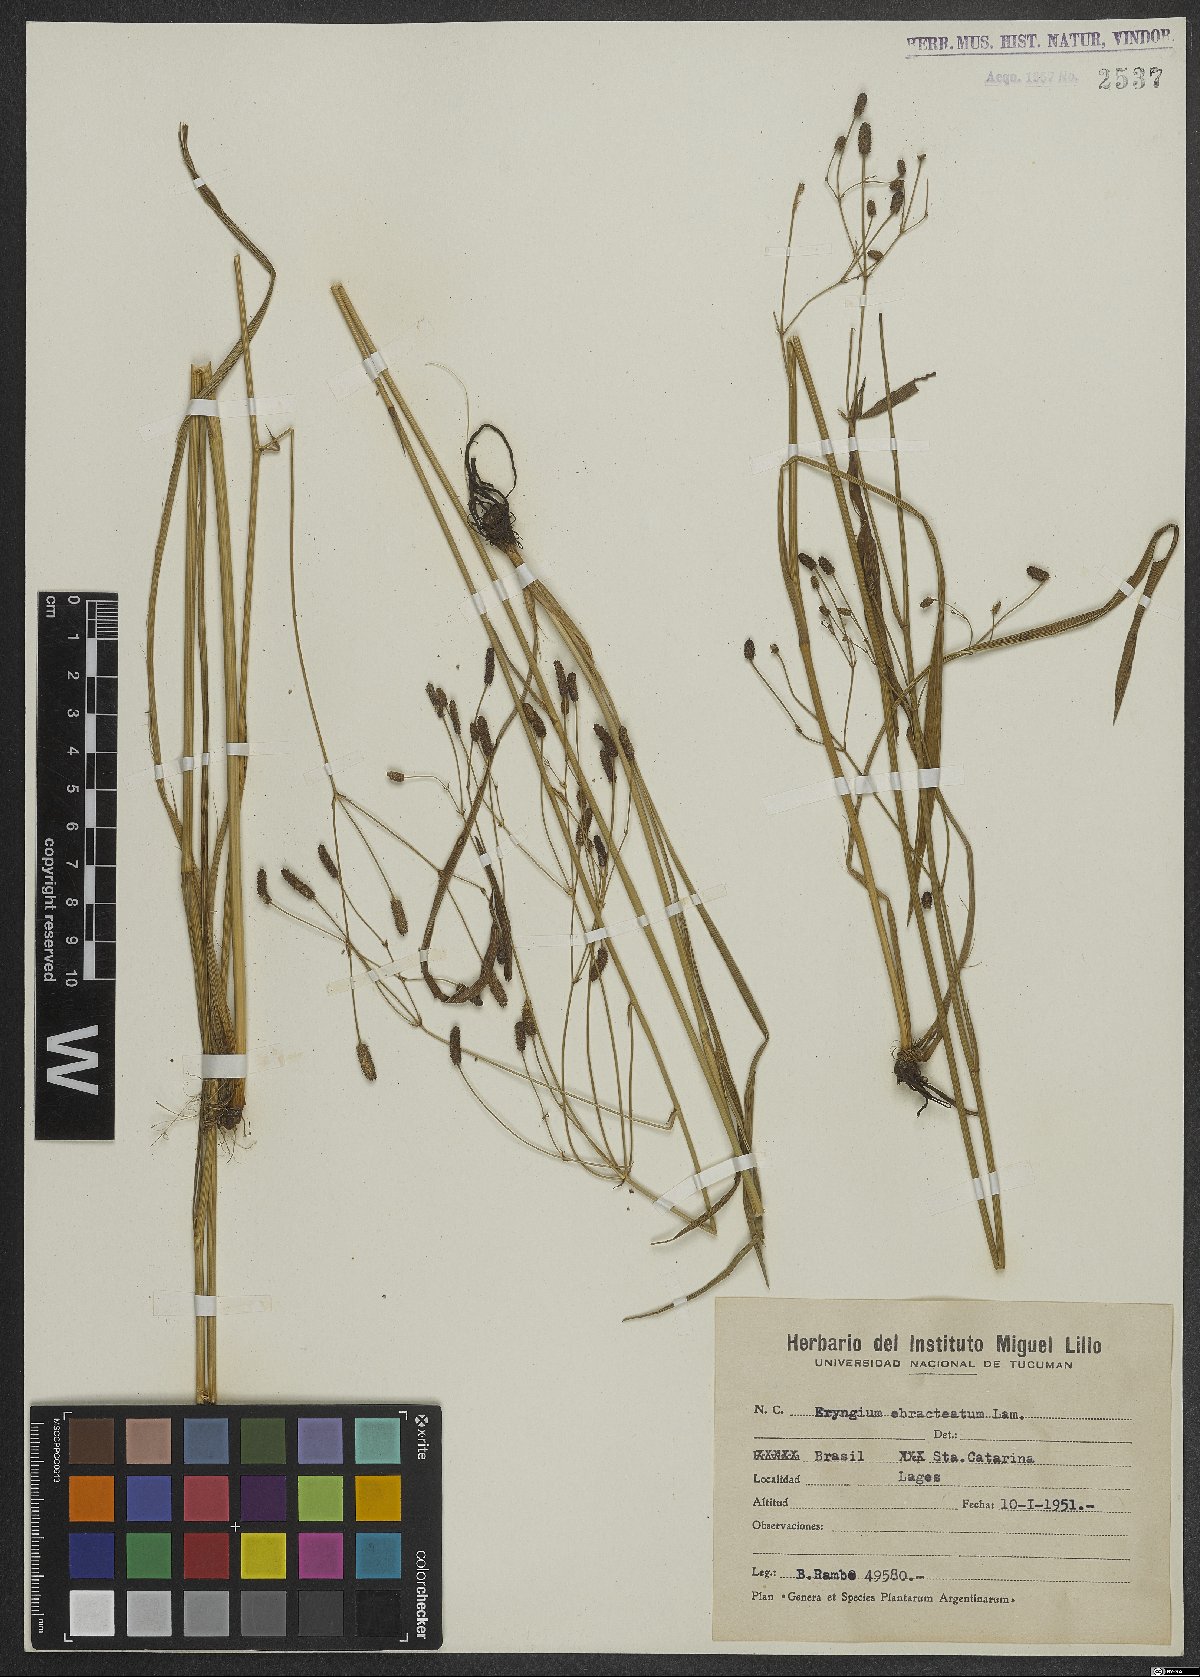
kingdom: Plantae
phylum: Tracheophyta
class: Magnoliopsida
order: Apiales
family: Apiaceae
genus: Eryngium
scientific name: Eryngium ebracteatum
